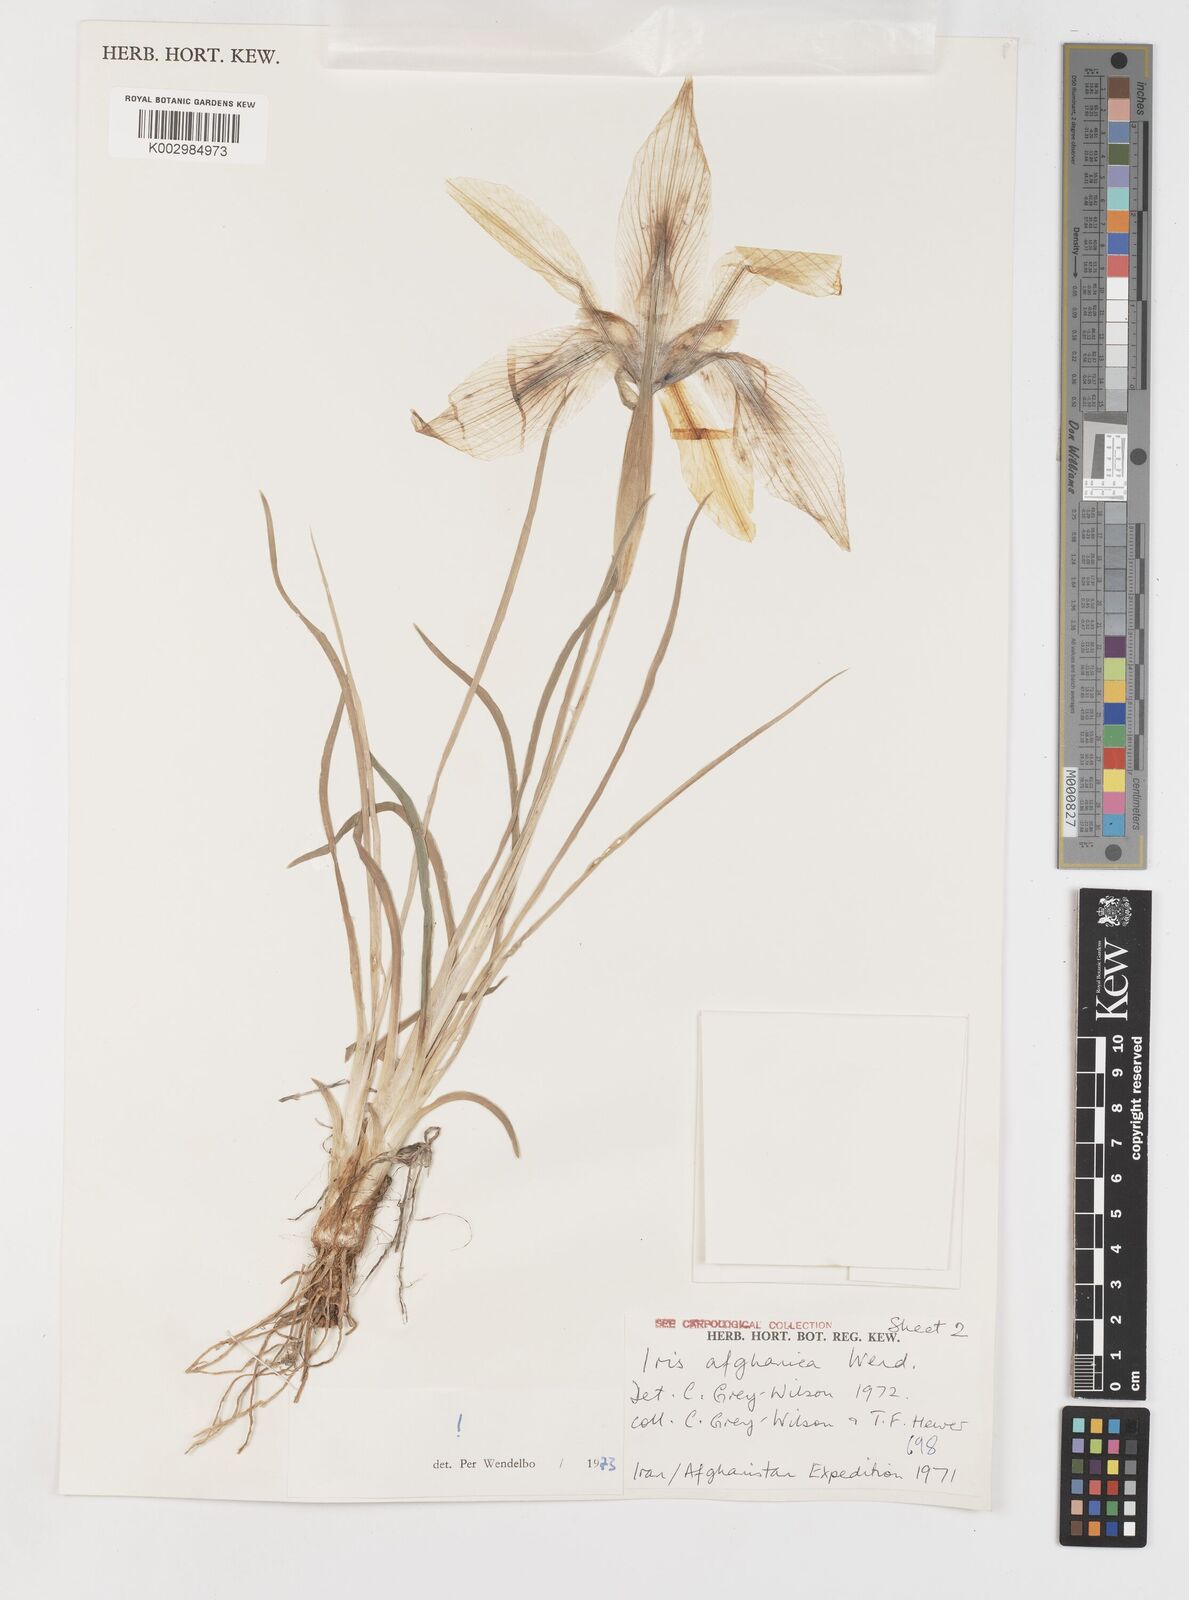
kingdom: Plantae
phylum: Tracheophyta
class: Liliopsida
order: Asparagales
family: Iridaceae
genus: Iris
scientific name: Iris afghanica
